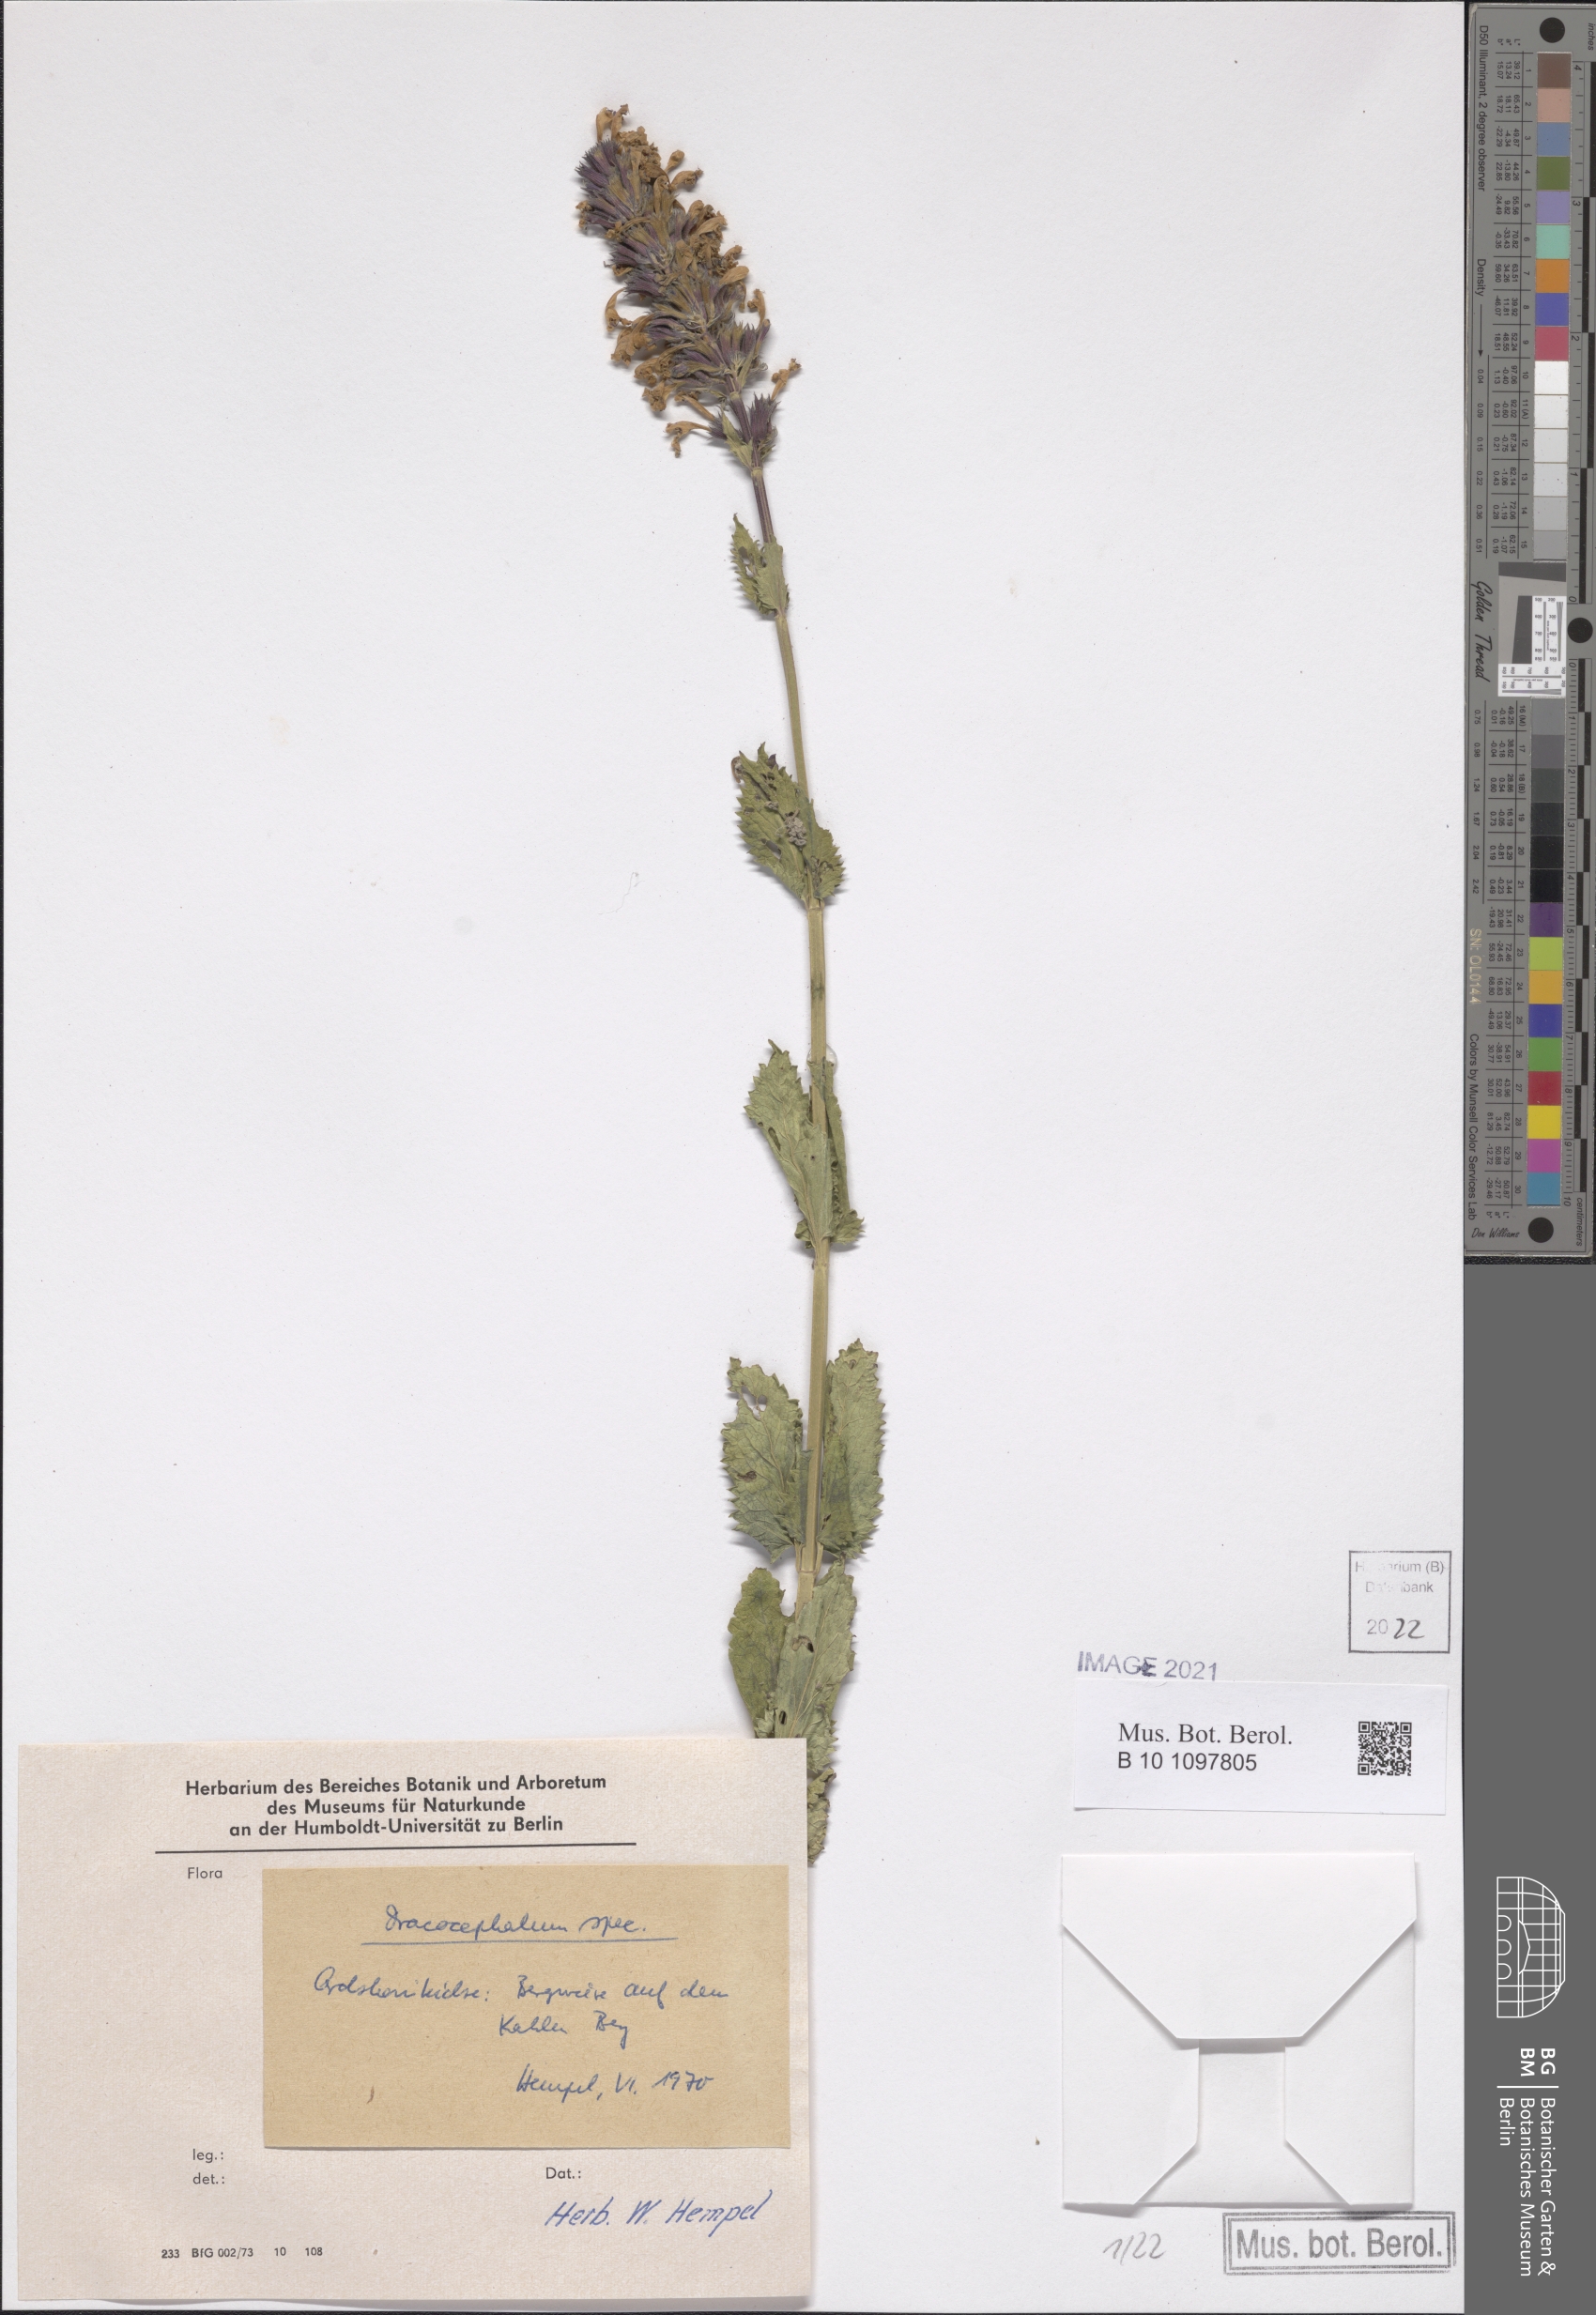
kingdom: Plantae
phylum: Tracheophyta
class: Magnoliopsida
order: Lamiales
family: Lamiaceae
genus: Dracocephalum
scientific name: Dracocephalum
